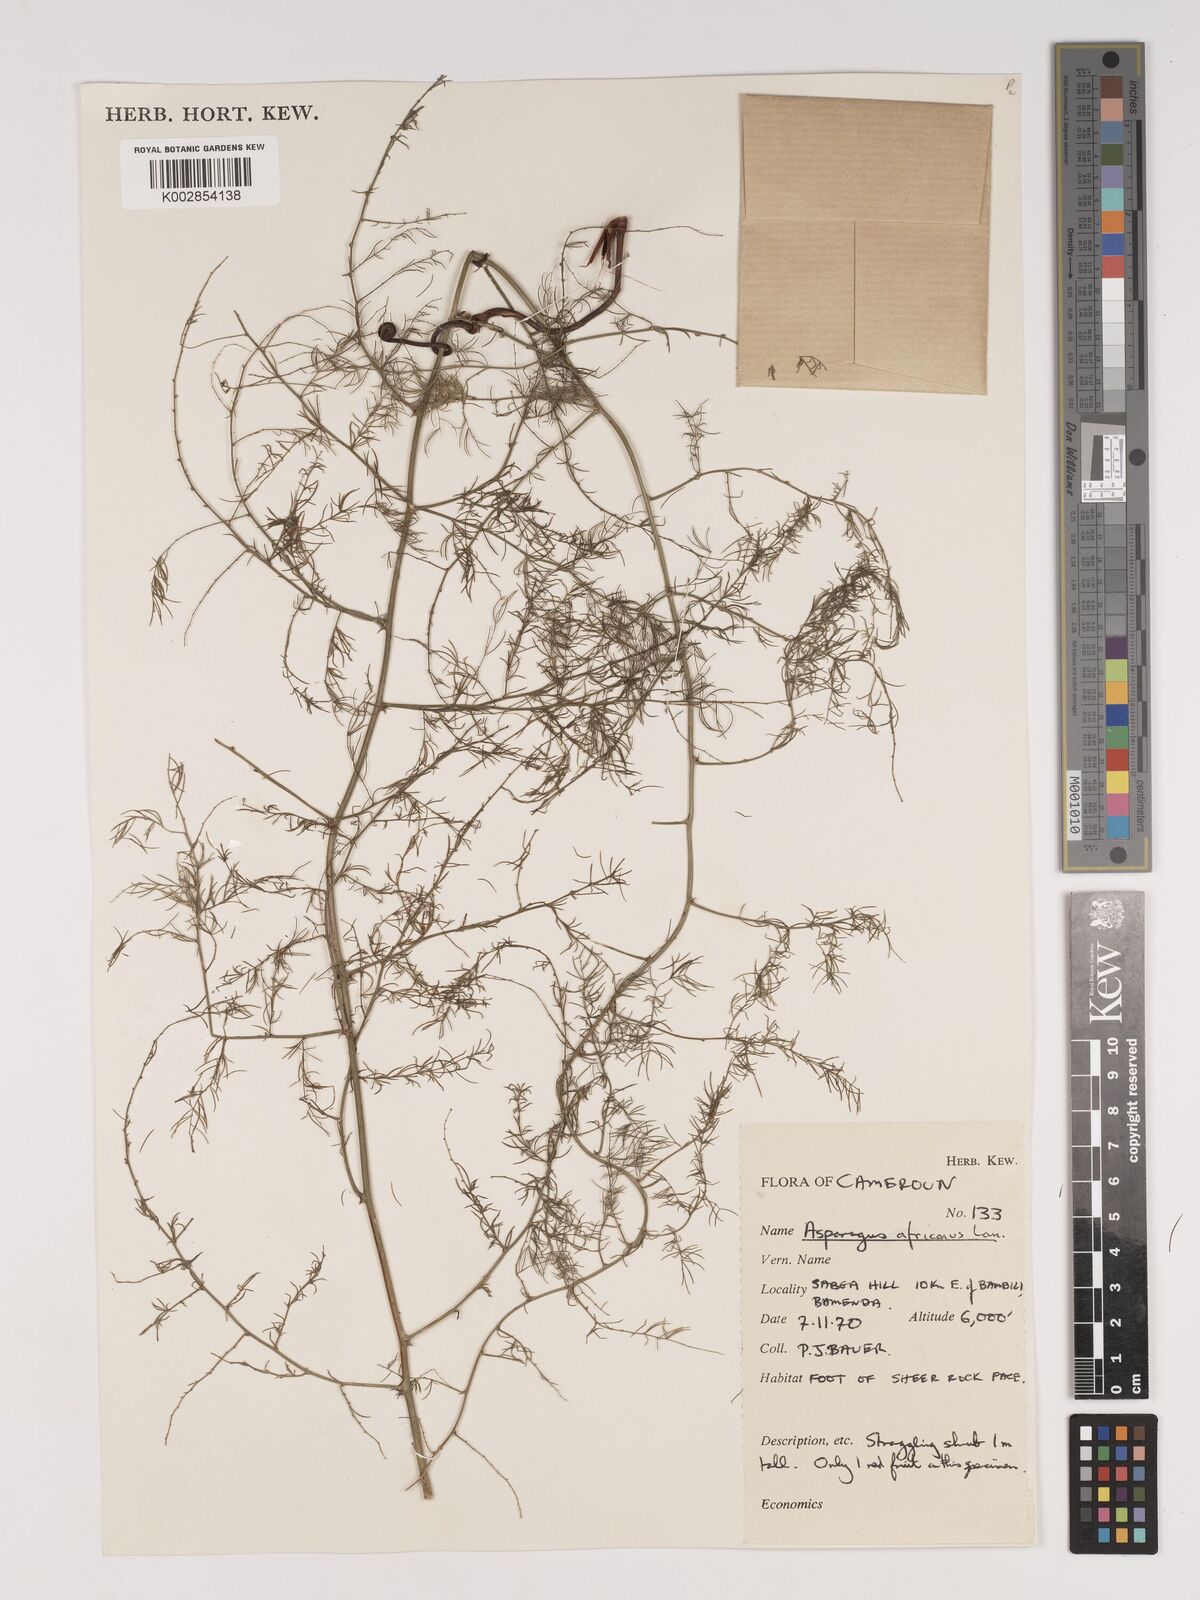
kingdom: Plantae
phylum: Tracheophyta
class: Liliopsida
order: Asparagales
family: Asparagaceae
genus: Asparagus
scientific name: Asparagus africanus
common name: Asparagus-fern
